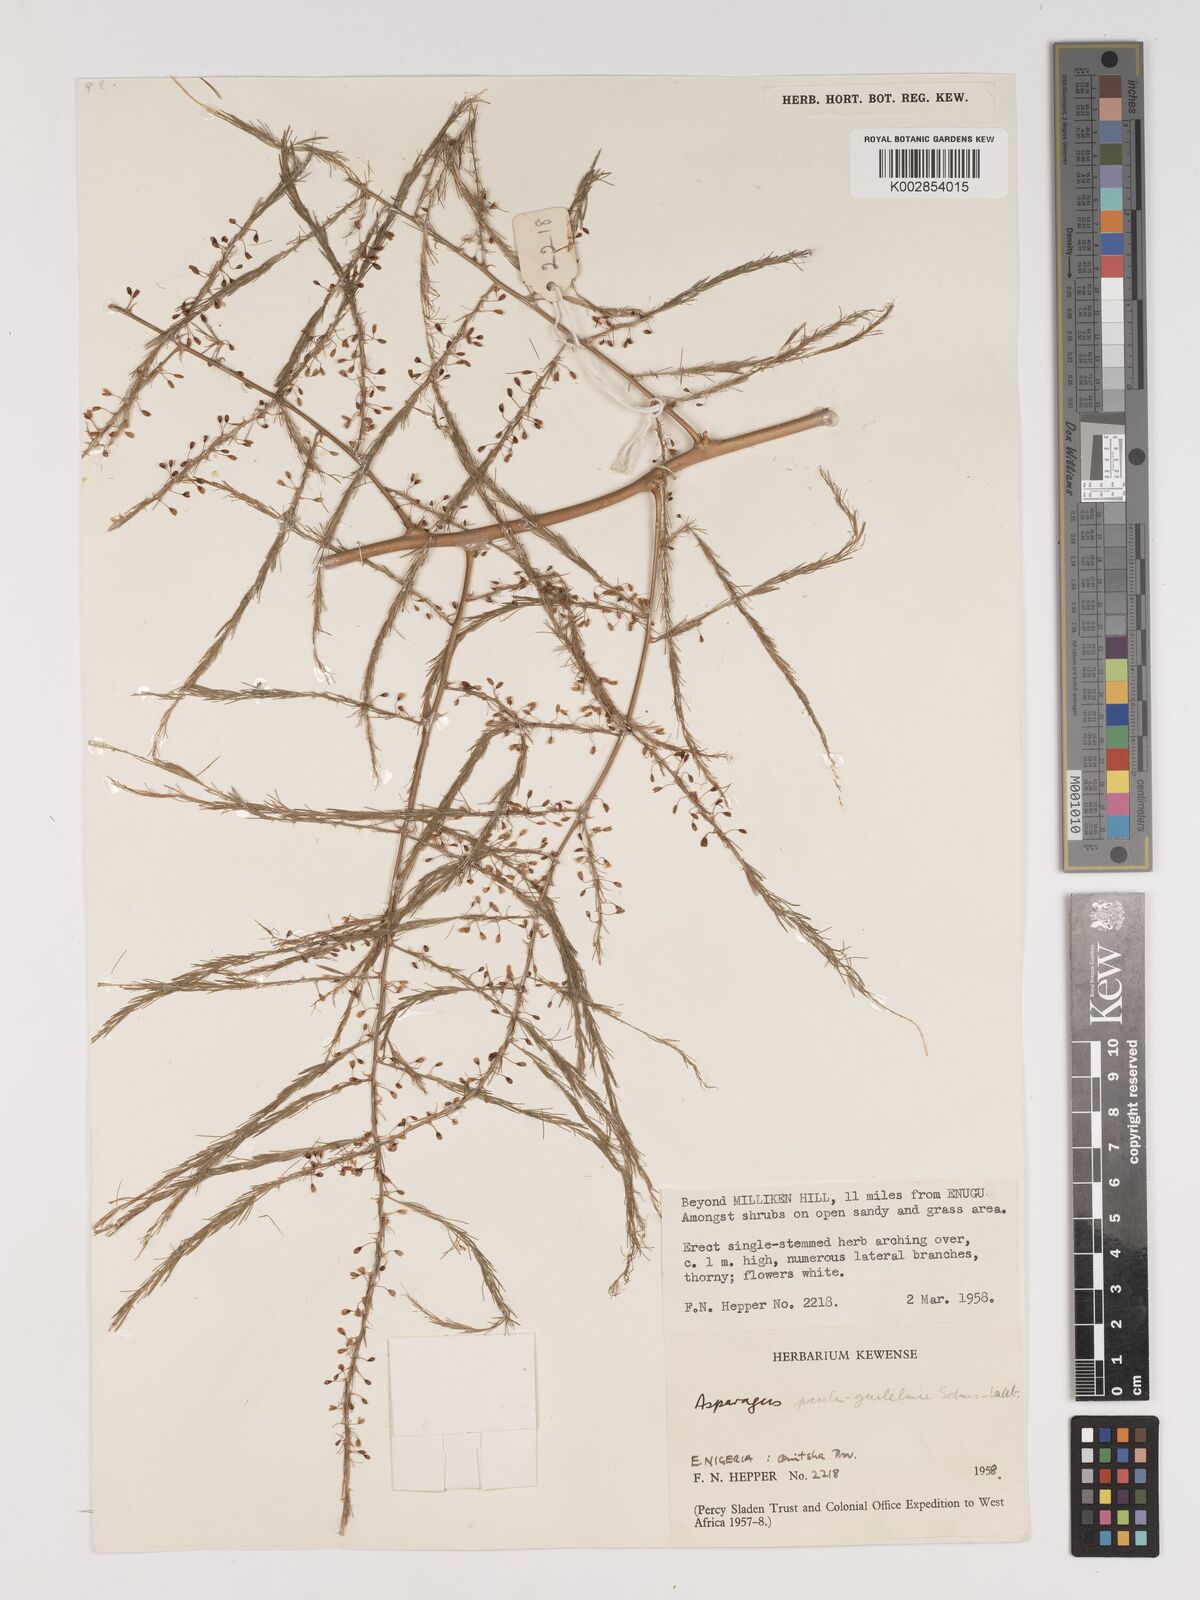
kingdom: Plantae
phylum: Tracheophyta
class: Liliopsida
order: Asparagales
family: Asparagaceae
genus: Asparagus
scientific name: Asparagus flagellaris
